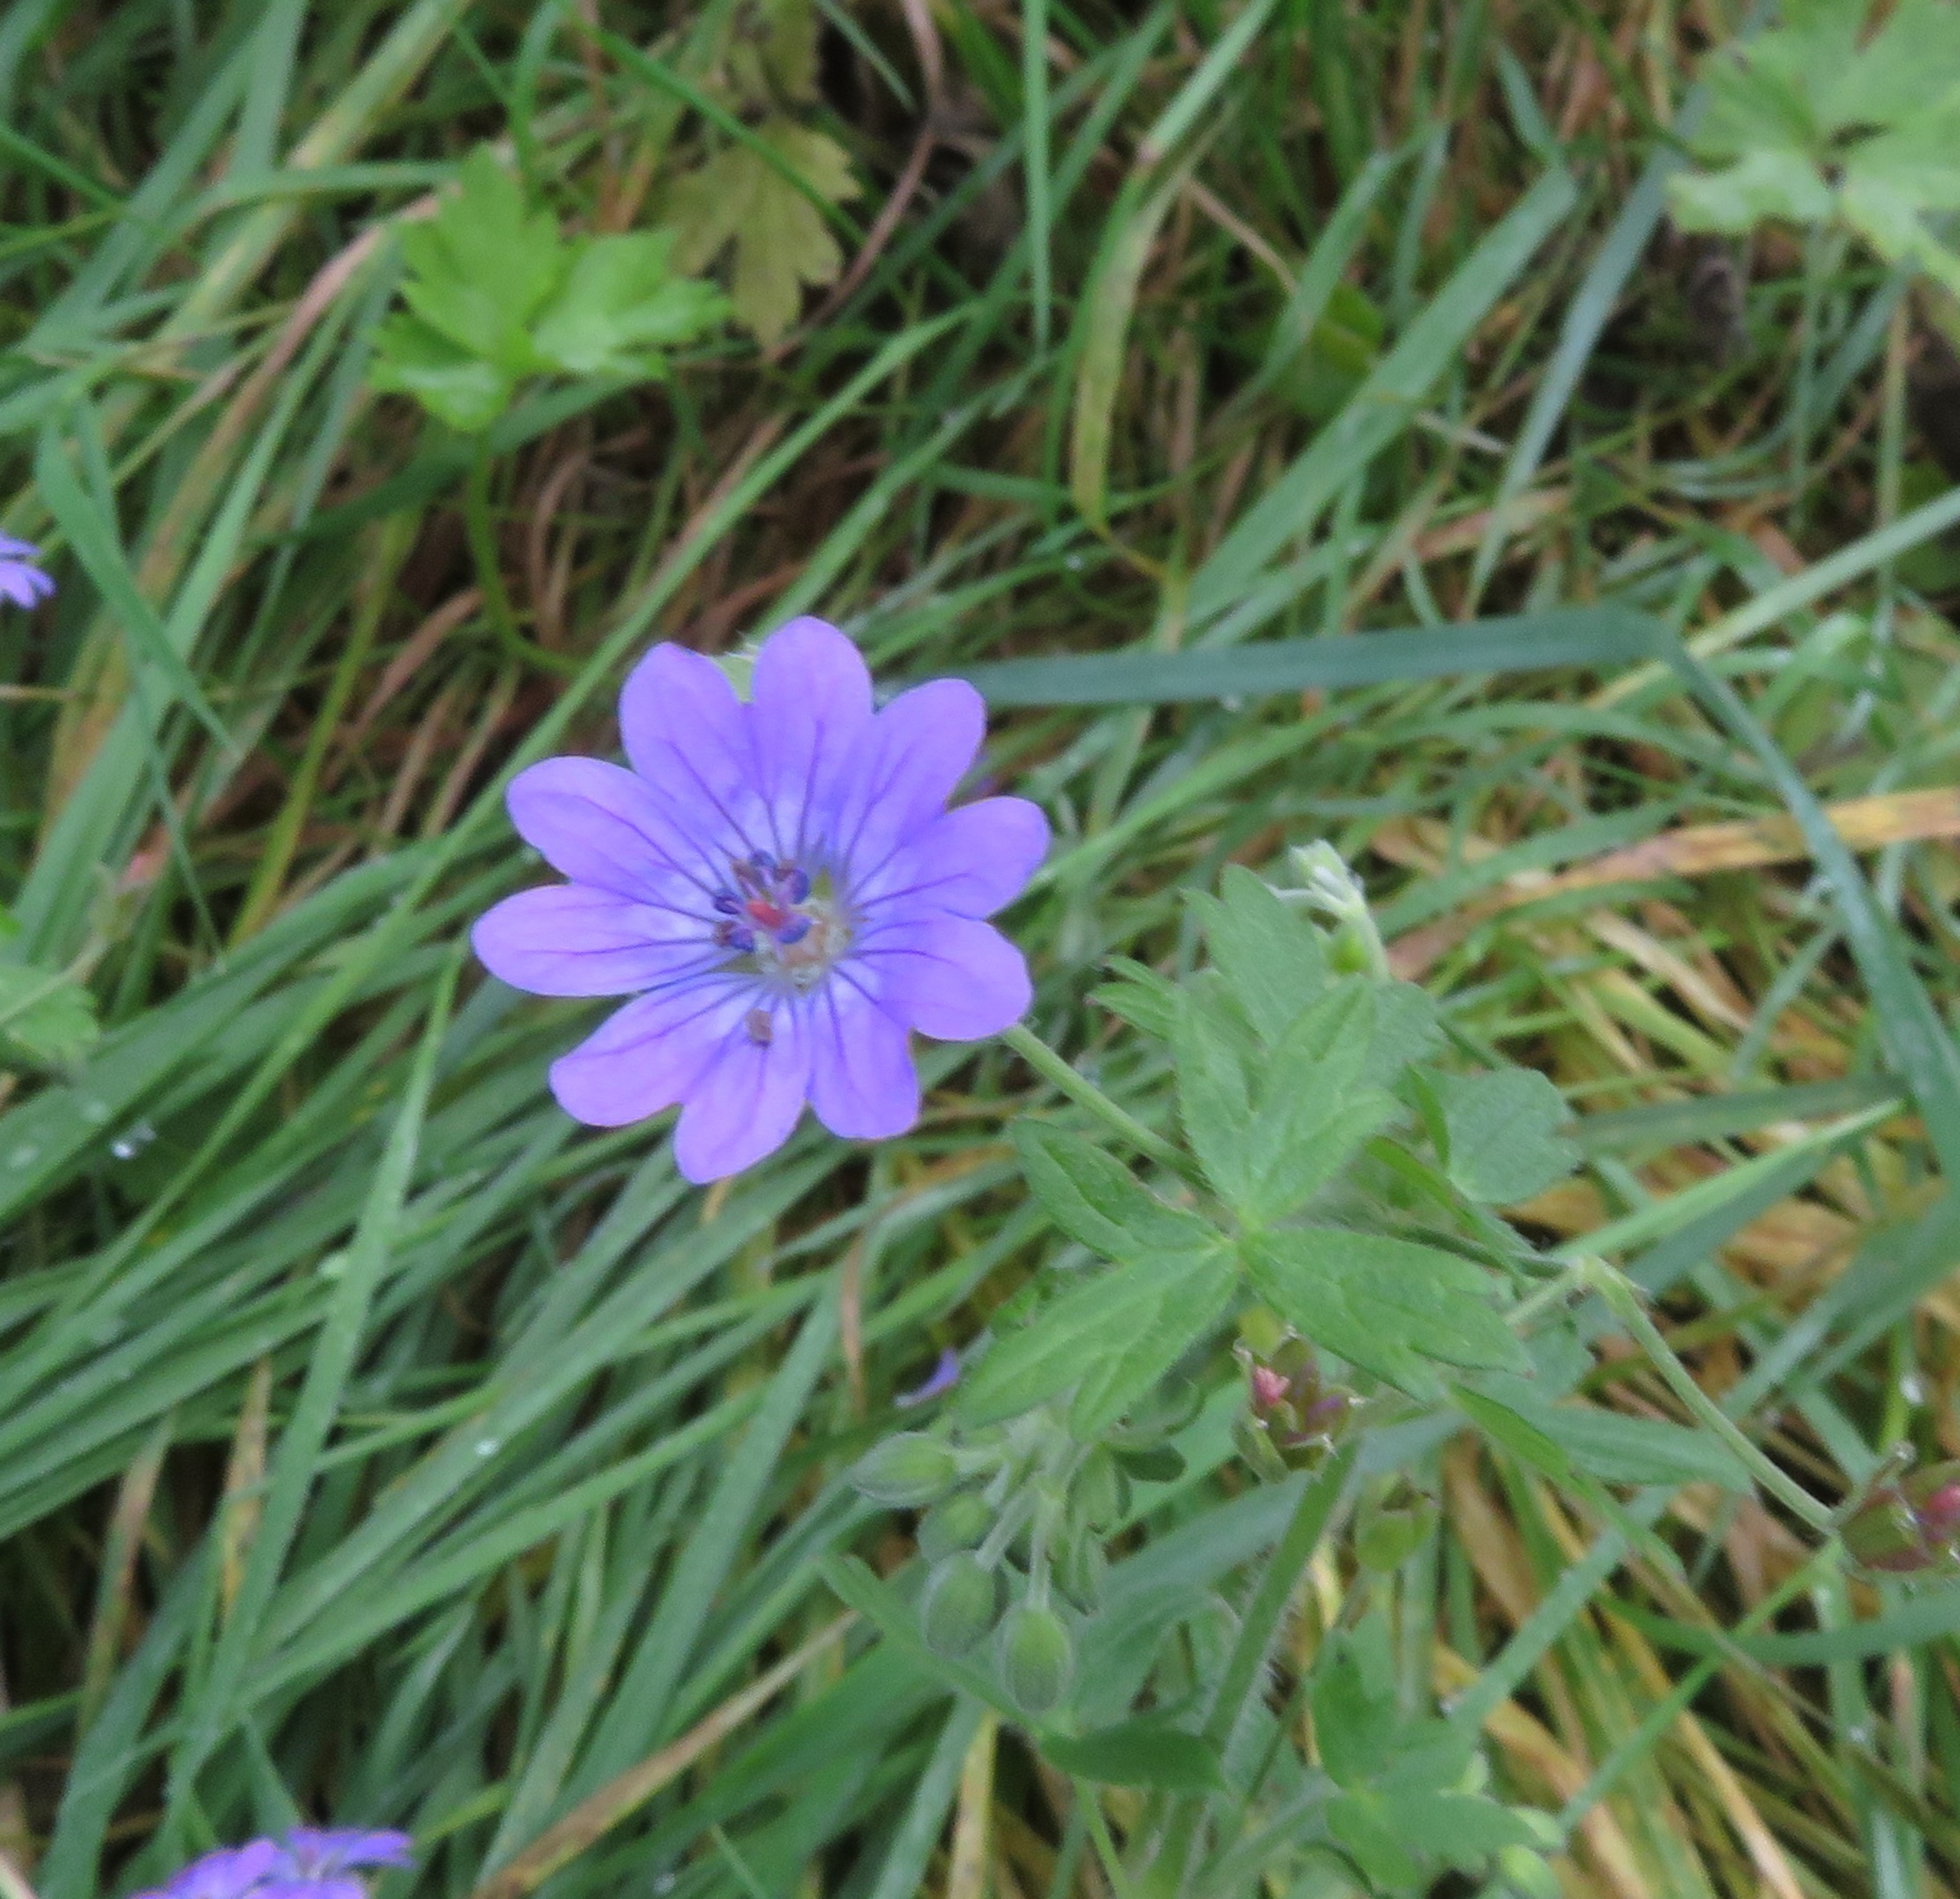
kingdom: Plantae
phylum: Tracheophyta
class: Magnoliopsida
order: Geraniales
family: Geraniaceae
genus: Geranium
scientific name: Geranium pyrenaicum
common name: Pyrenæisk storkenæb
